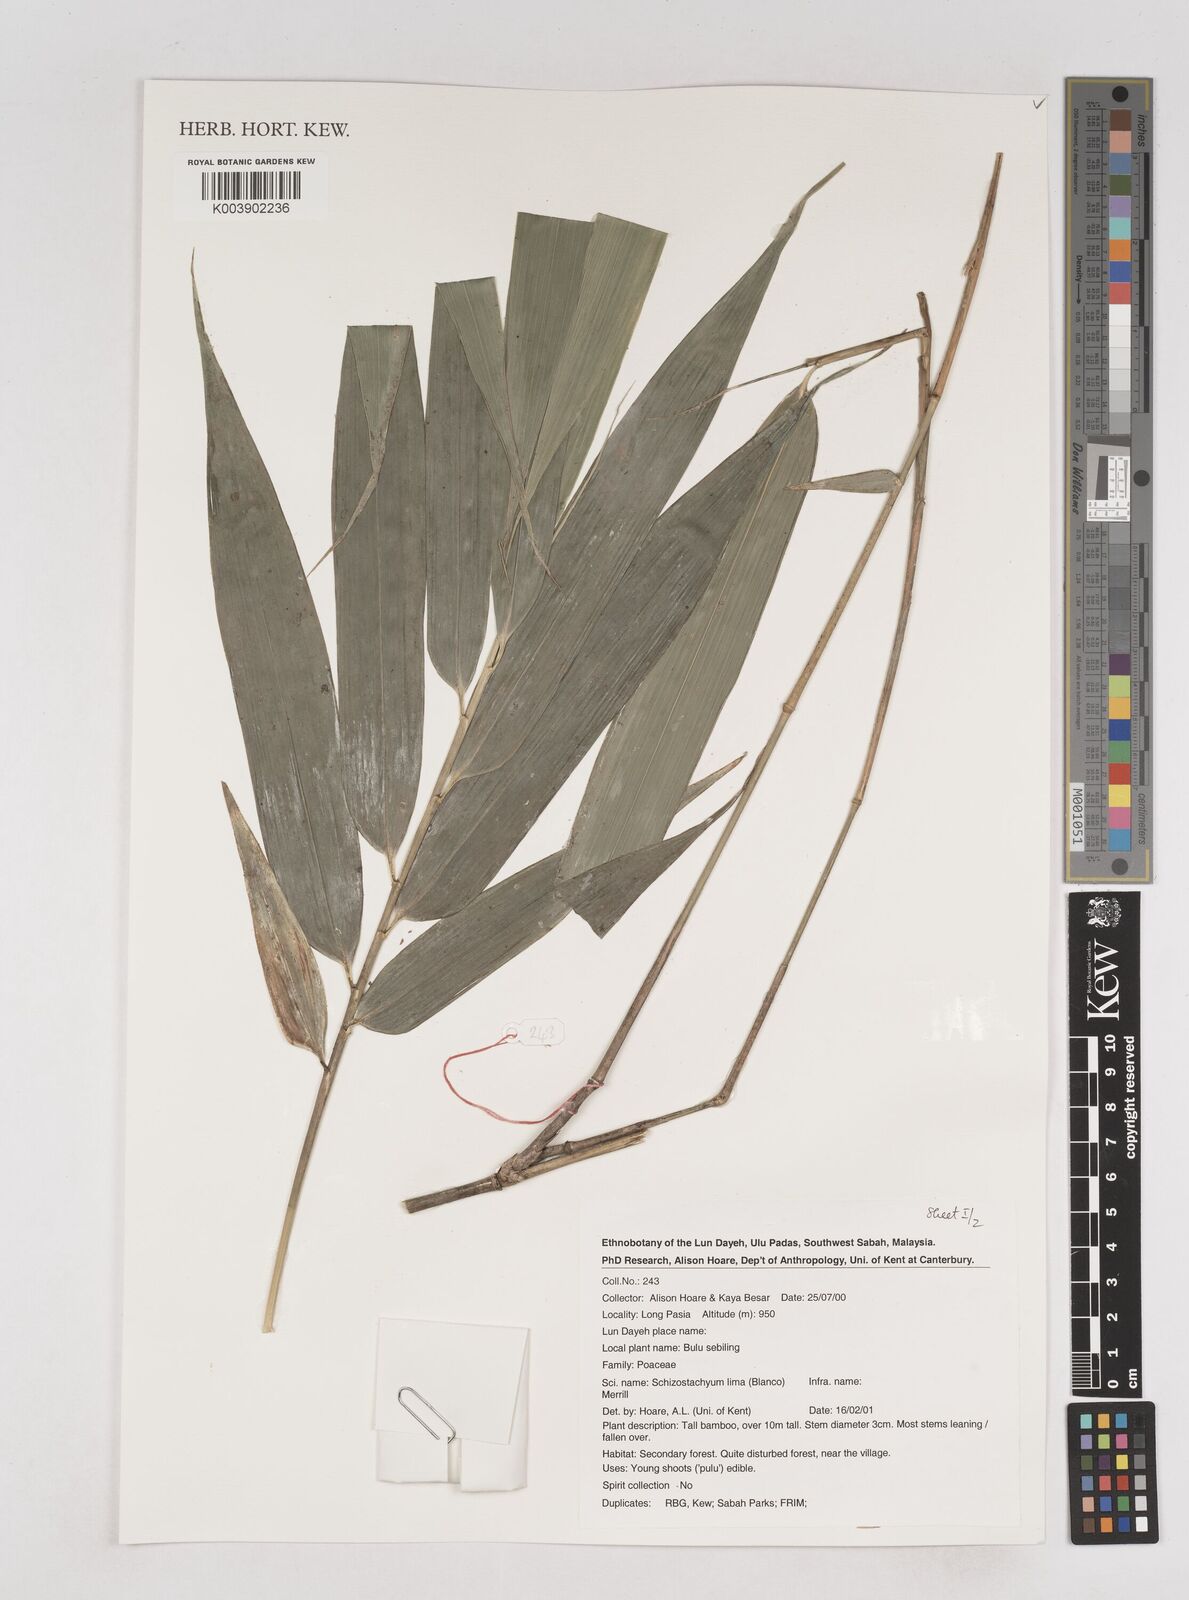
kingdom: Plantae
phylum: Tracheophyta
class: Liliopsida
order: Poales
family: Poaceae
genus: Schizostachyum
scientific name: Schizostachyum lima
